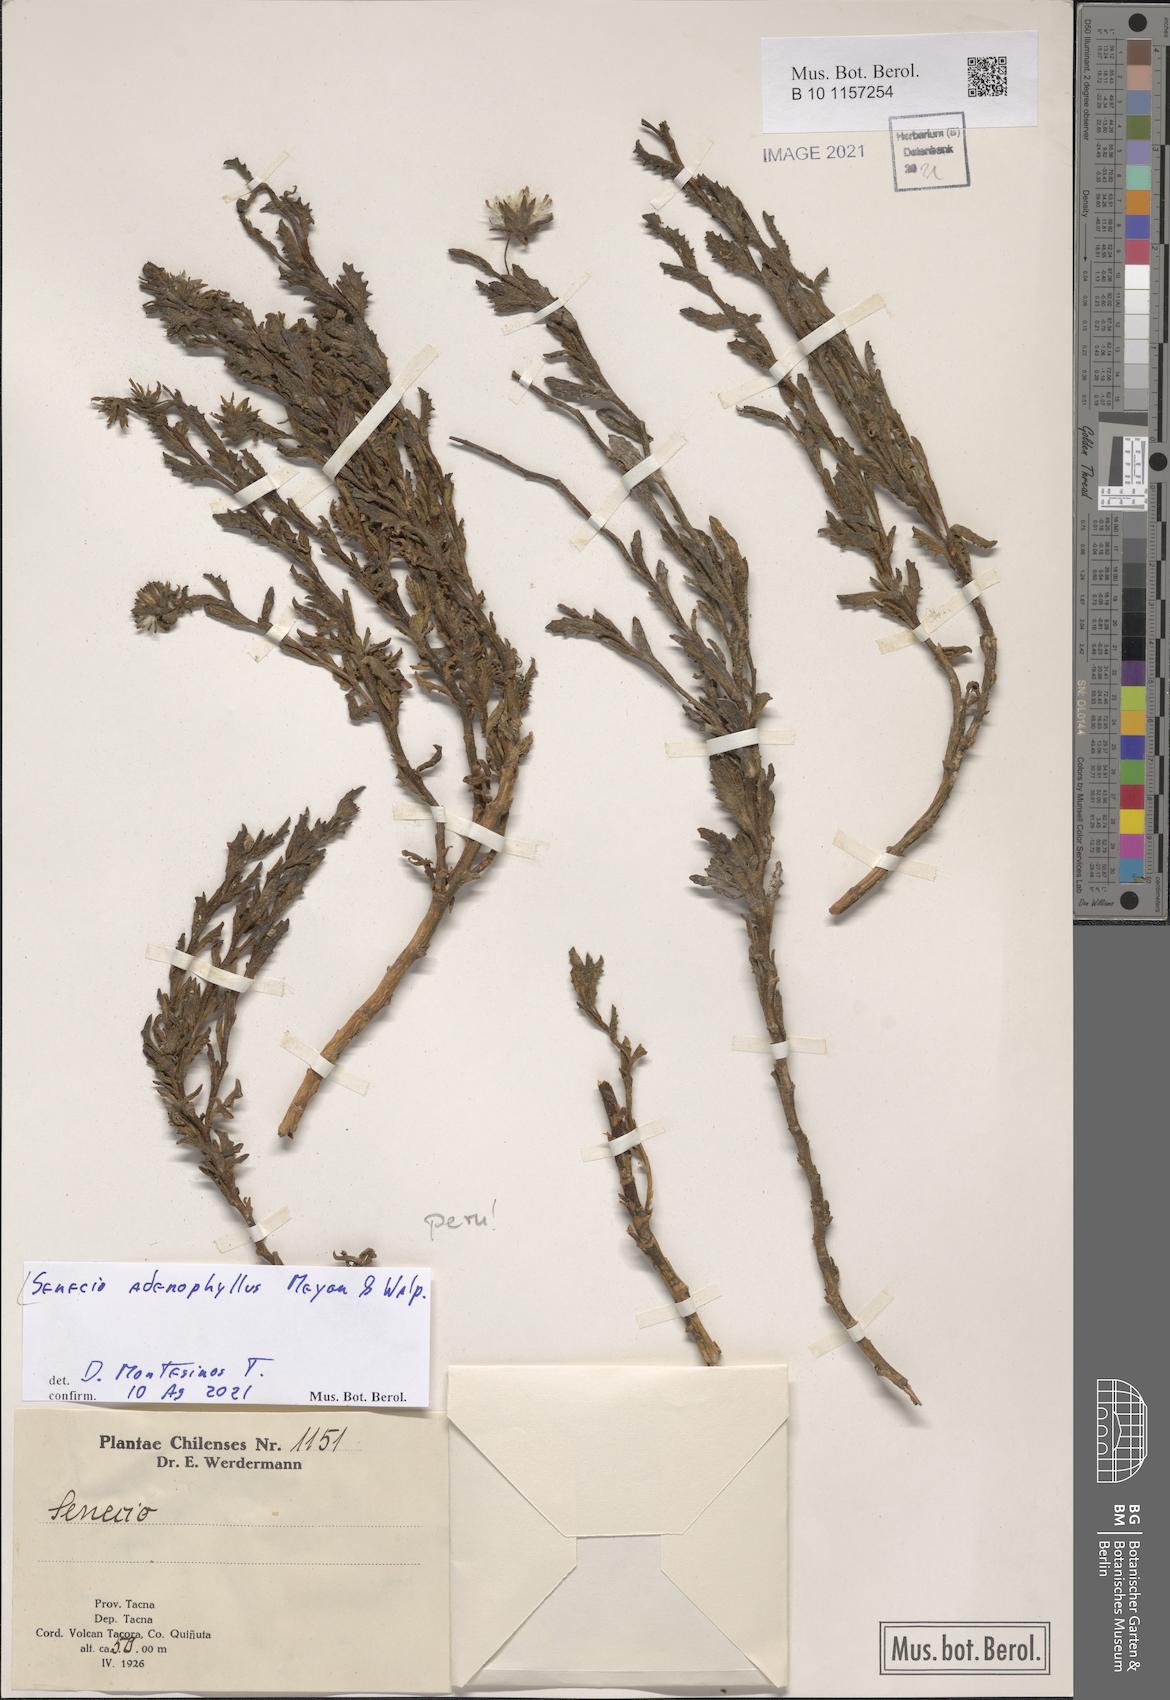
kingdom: Plantae
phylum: Tracheophyta
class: Magnoliopsida
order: Asterales
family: Asteraceae
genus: Senecio
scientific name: Senecio adenophyllus
